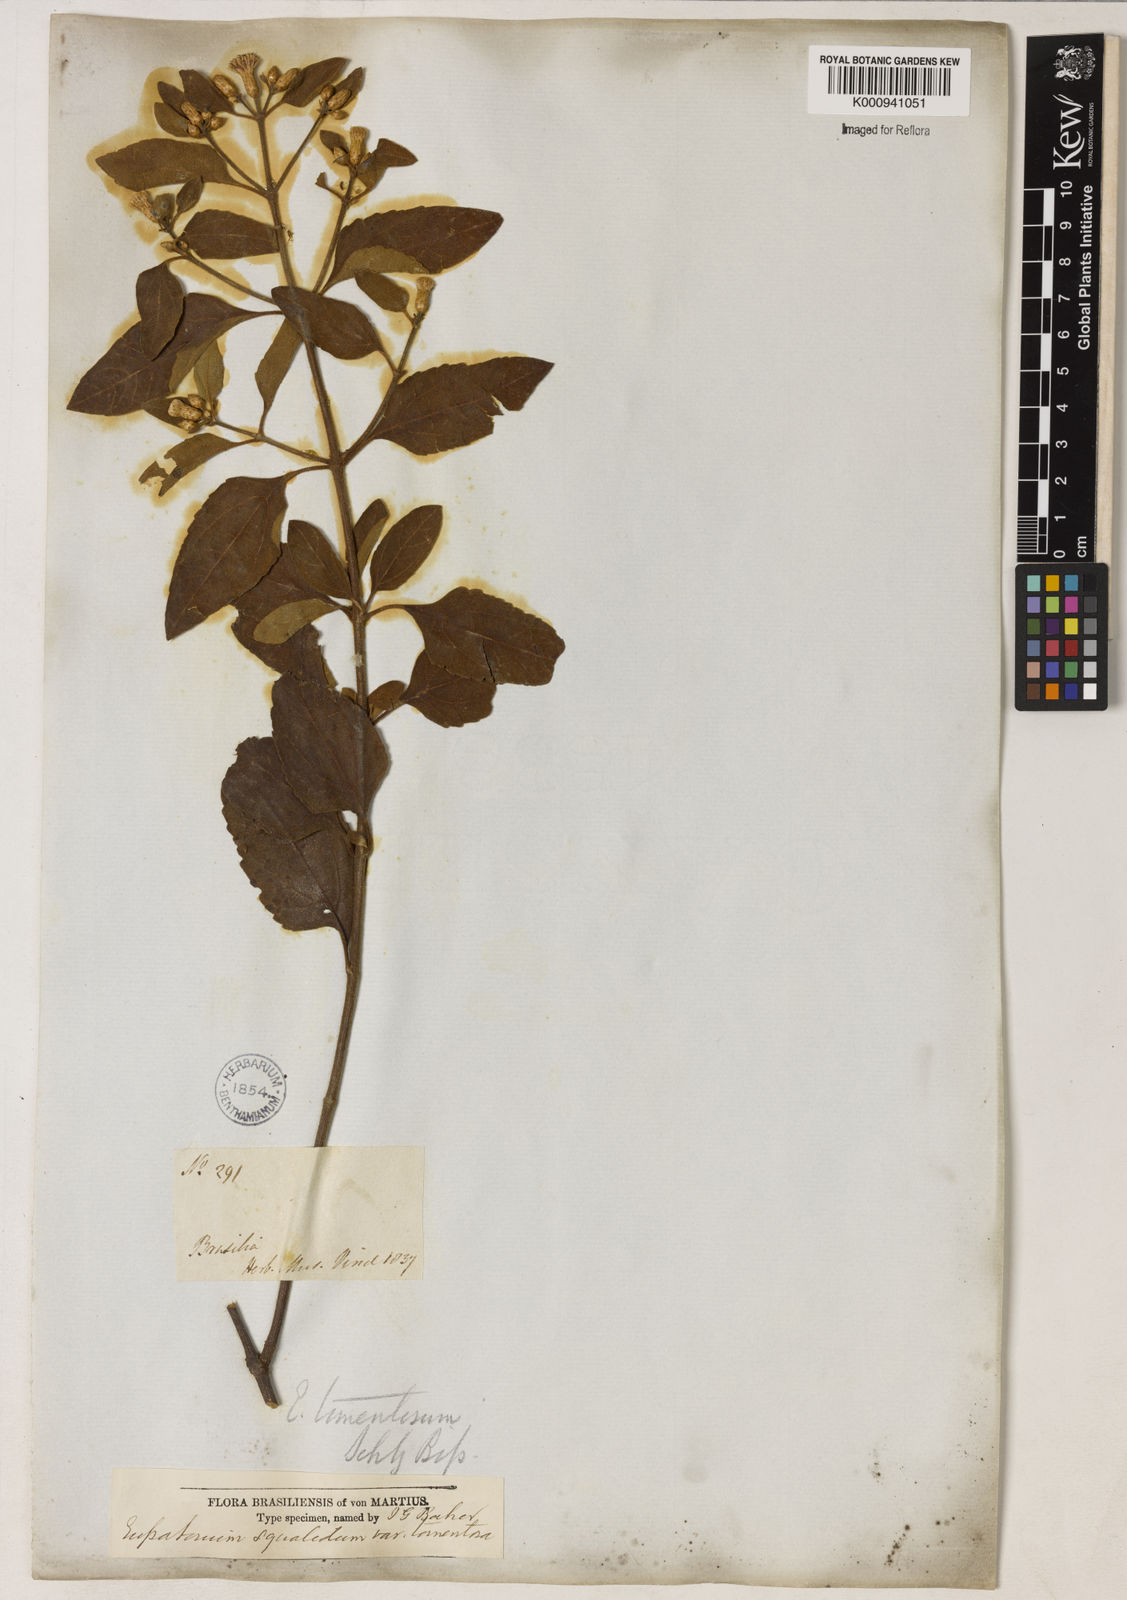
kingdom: Plantae
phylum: Tracheophyta
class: Magnoliopsida
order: Asterales
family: Asteraceae
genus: Chromolaena
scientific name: Chromolaena squalida
